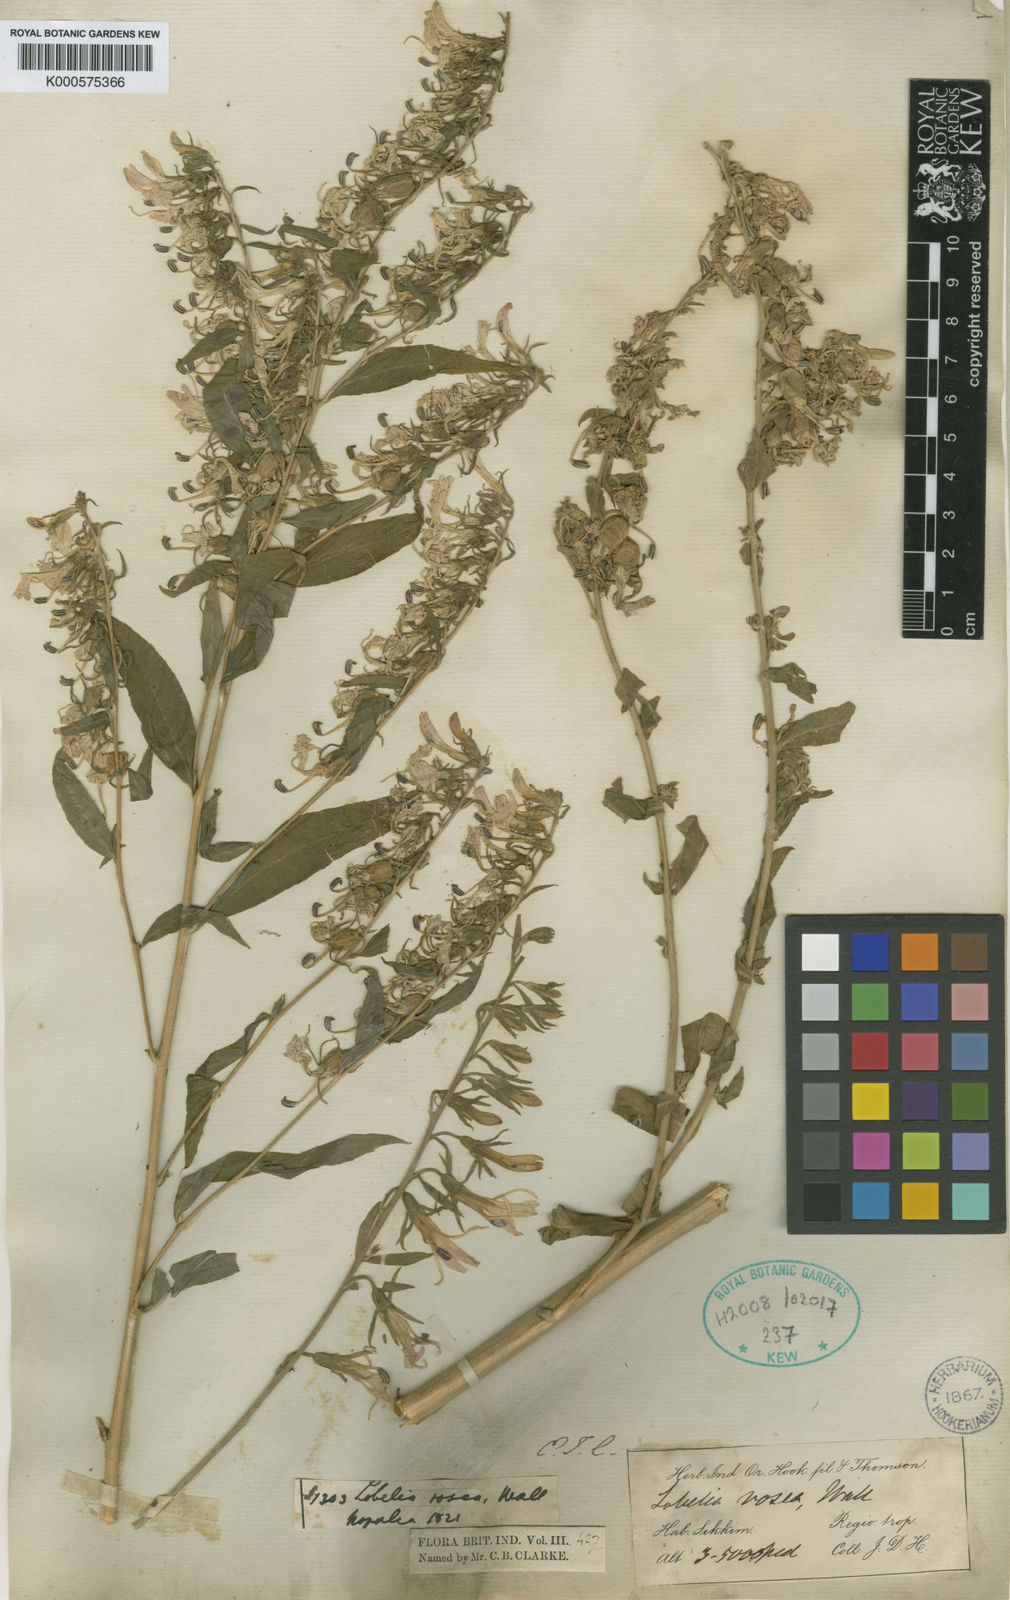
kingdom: Plantae
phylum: Tracheophyta
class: Magnoliopsida
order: Asterales
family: Campanulaceae
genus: Lobelia
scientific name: Lobelia
